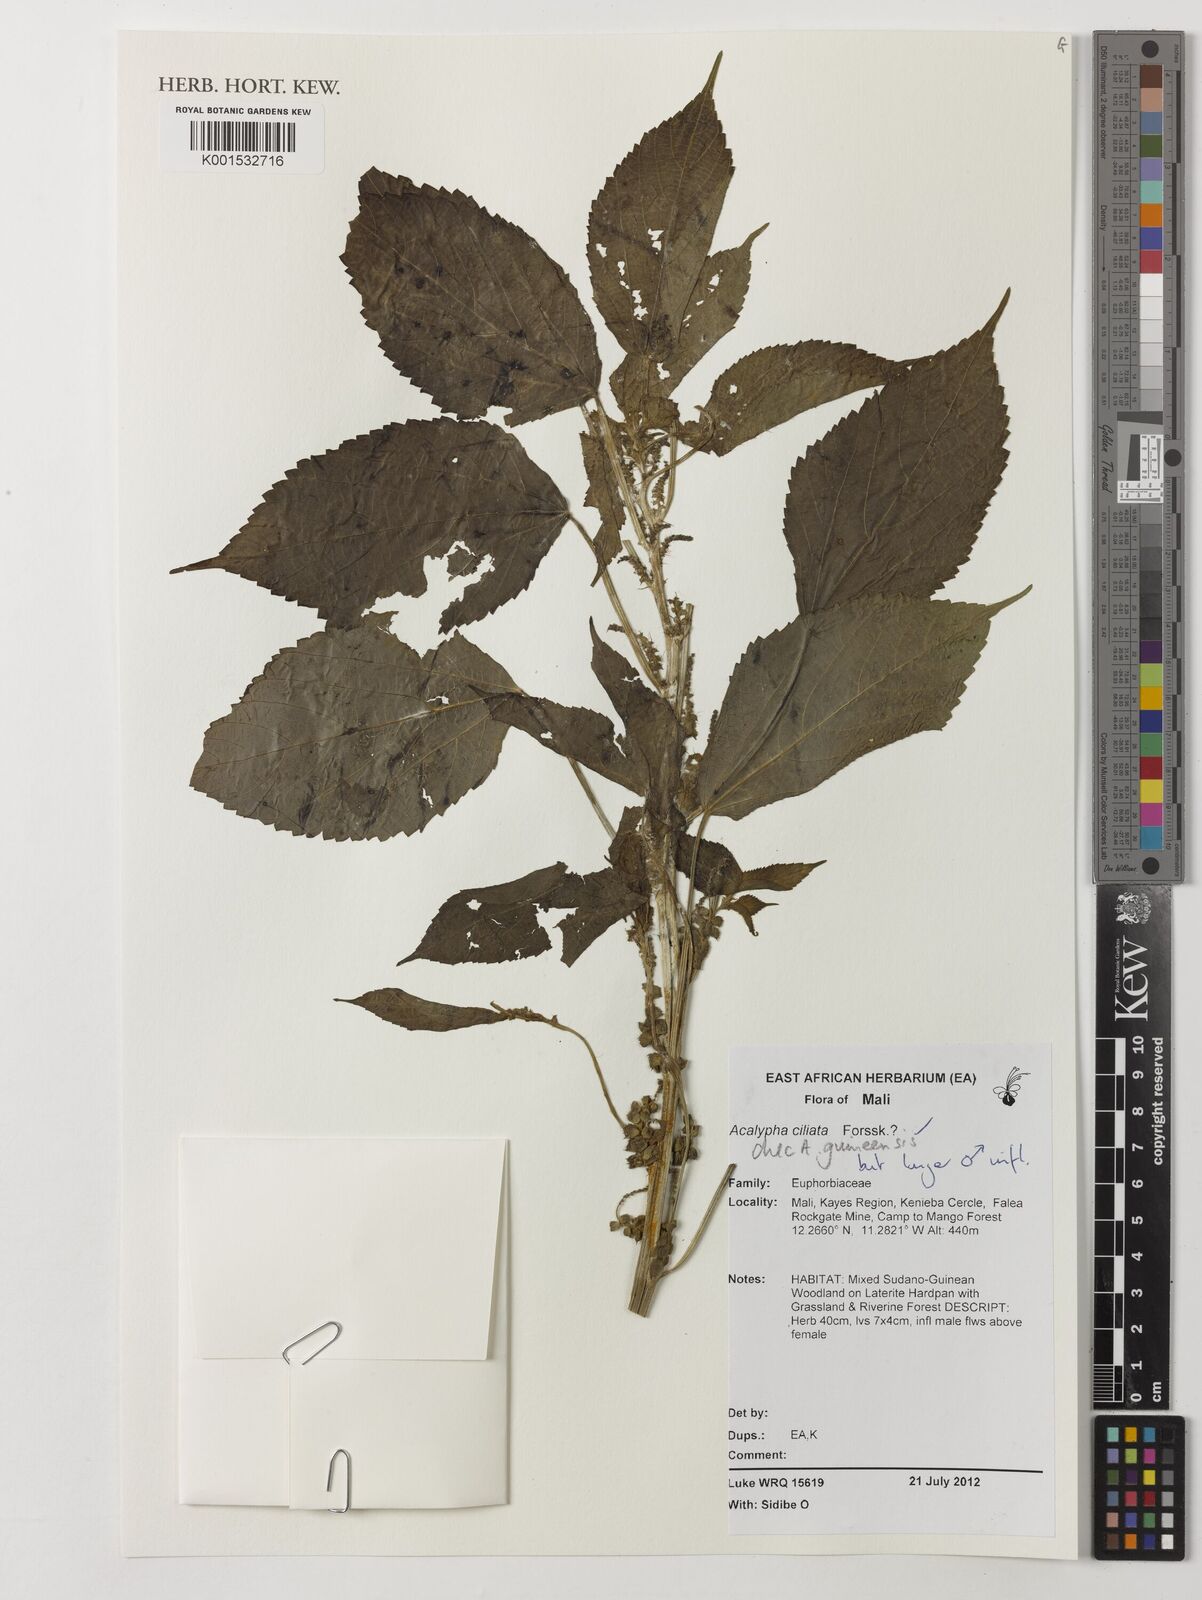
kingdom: Plantae
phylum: Tracheophyta
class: Magnoliopsida
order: Malpighiales
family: Euphorbiaceae
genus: Acalypha
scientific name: Acalypha guineensis
